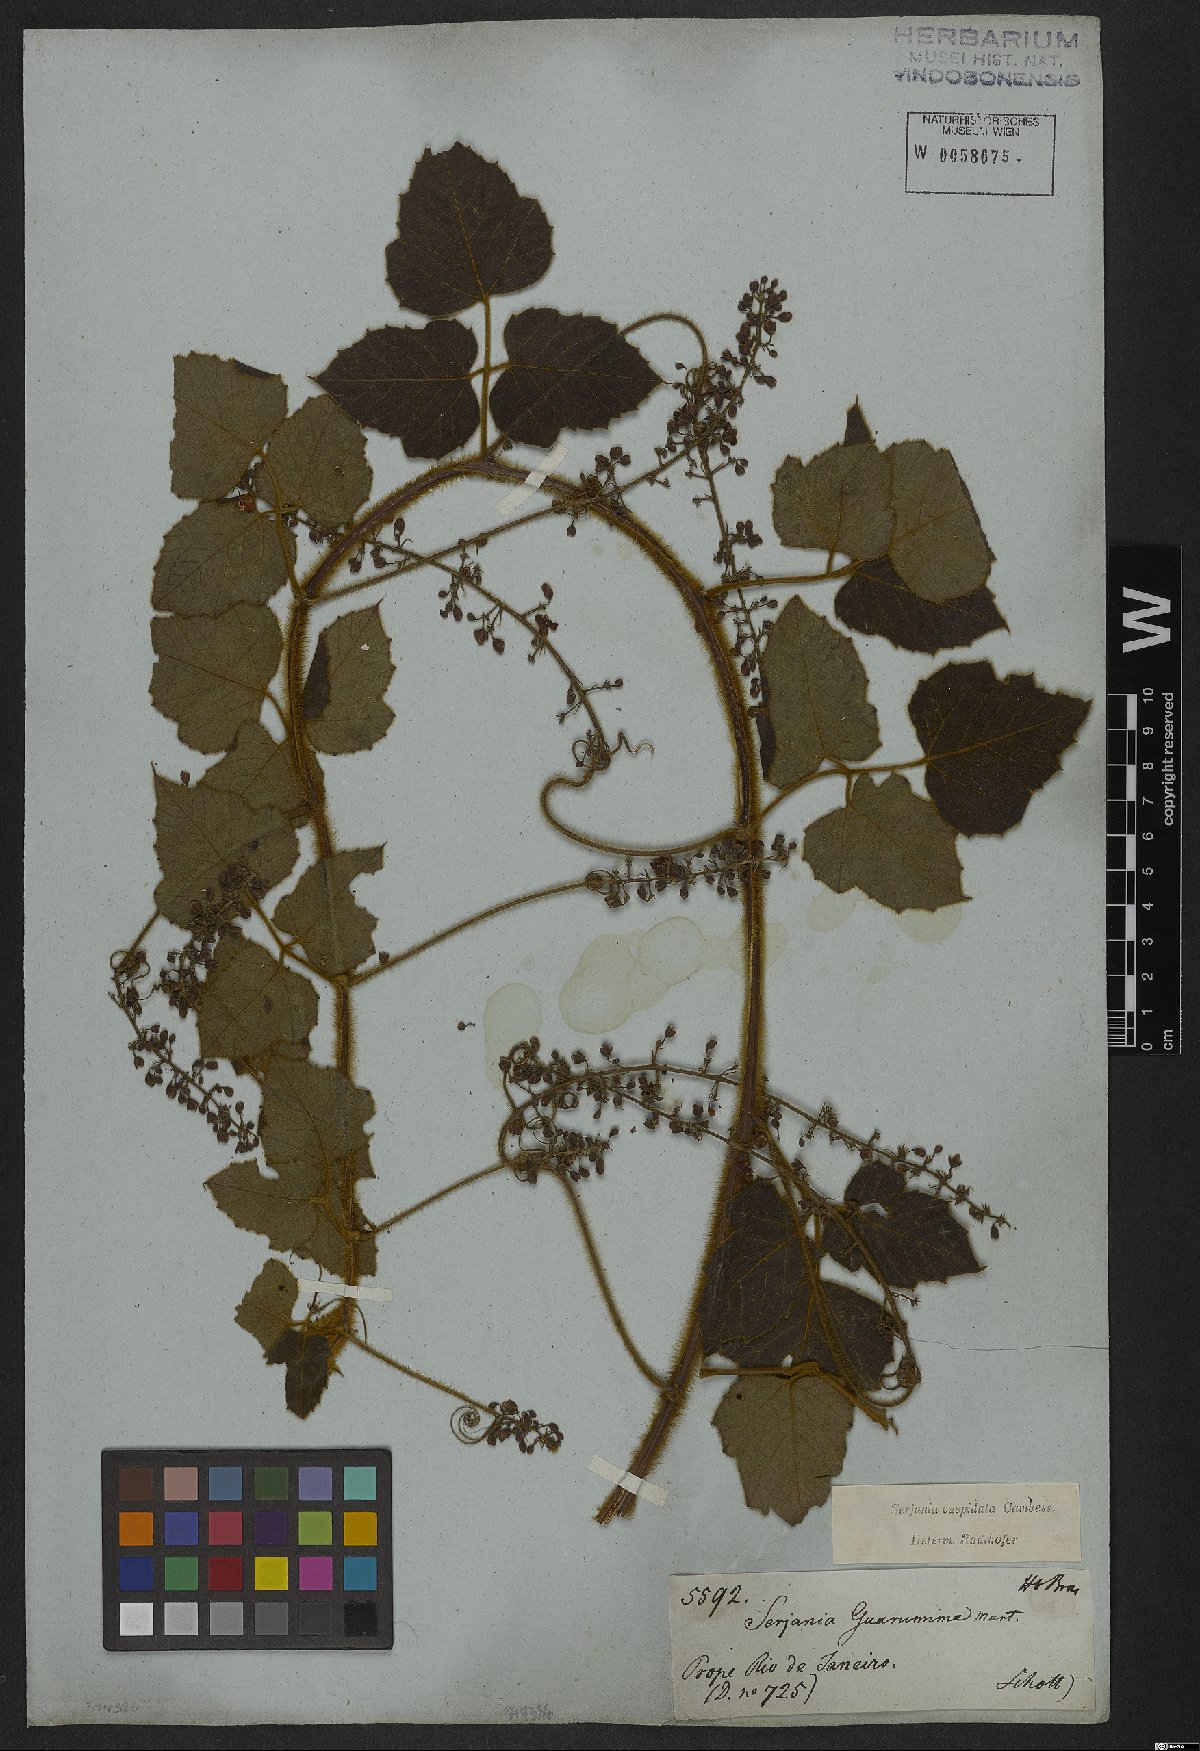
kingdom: Plantae
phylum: Tracheophyta
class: Magnoliopsida
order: Sapindales
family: Sapindaceae
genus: Serjania
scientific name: Serjania ferruginea
